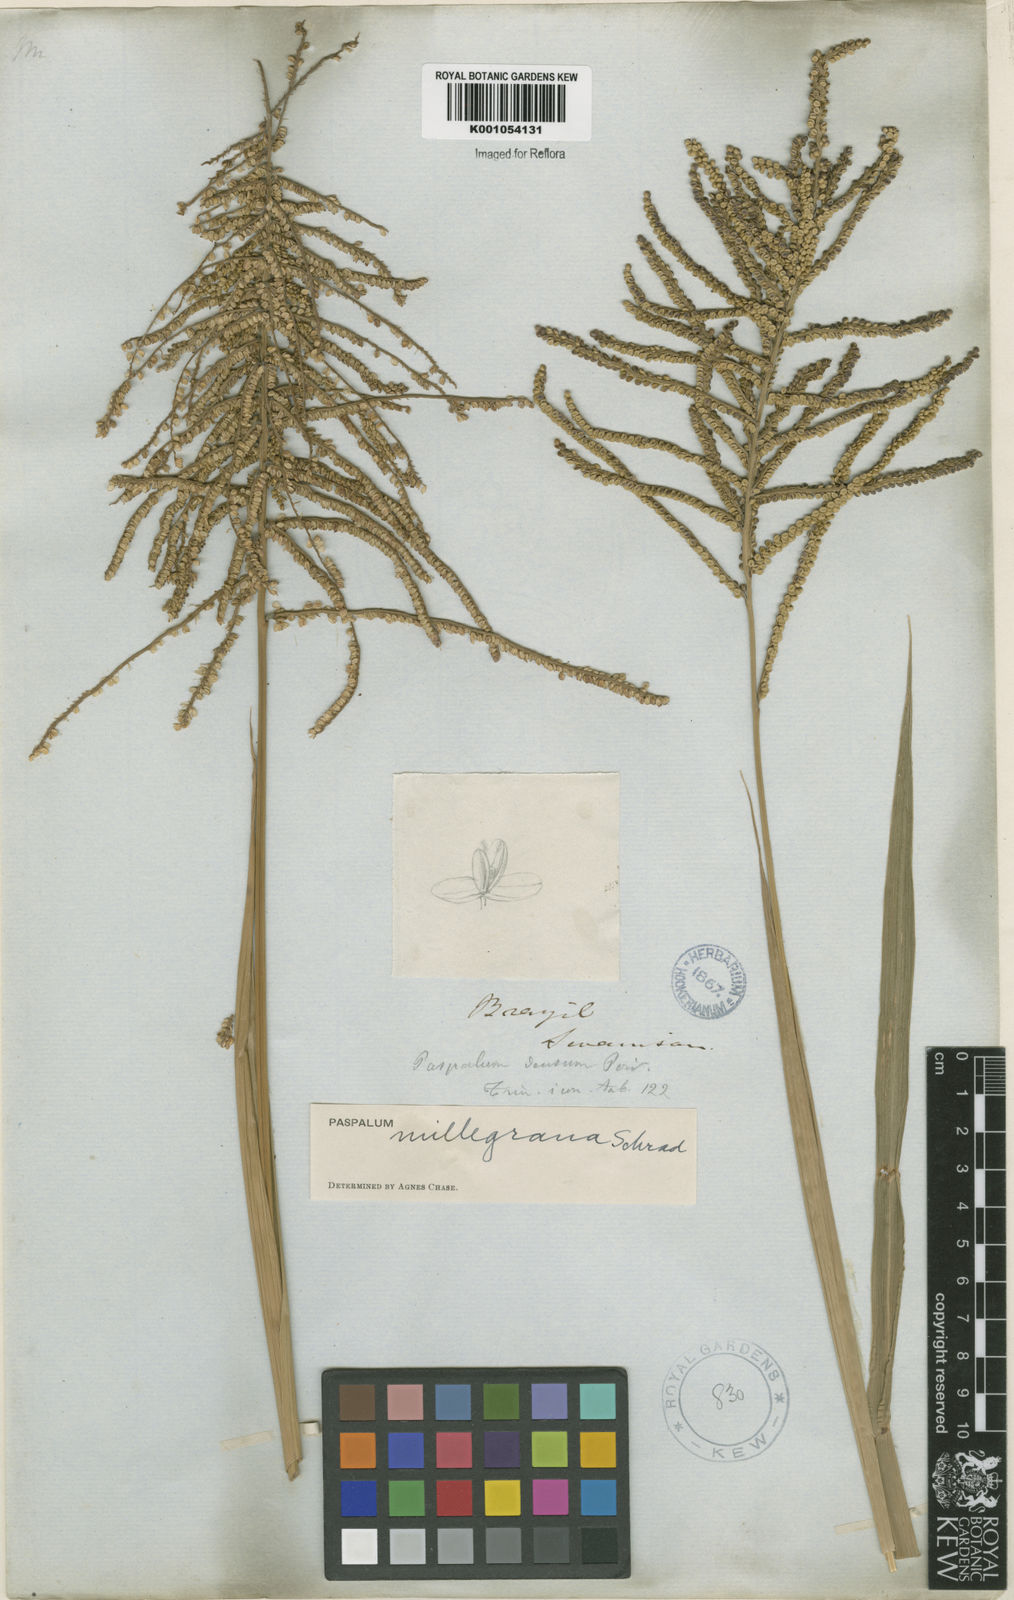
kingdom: Plantae
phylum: Tracheophyta
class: Liliopsida
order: Poales
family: Poaceae
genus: Paspalum
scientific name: Paspalum
